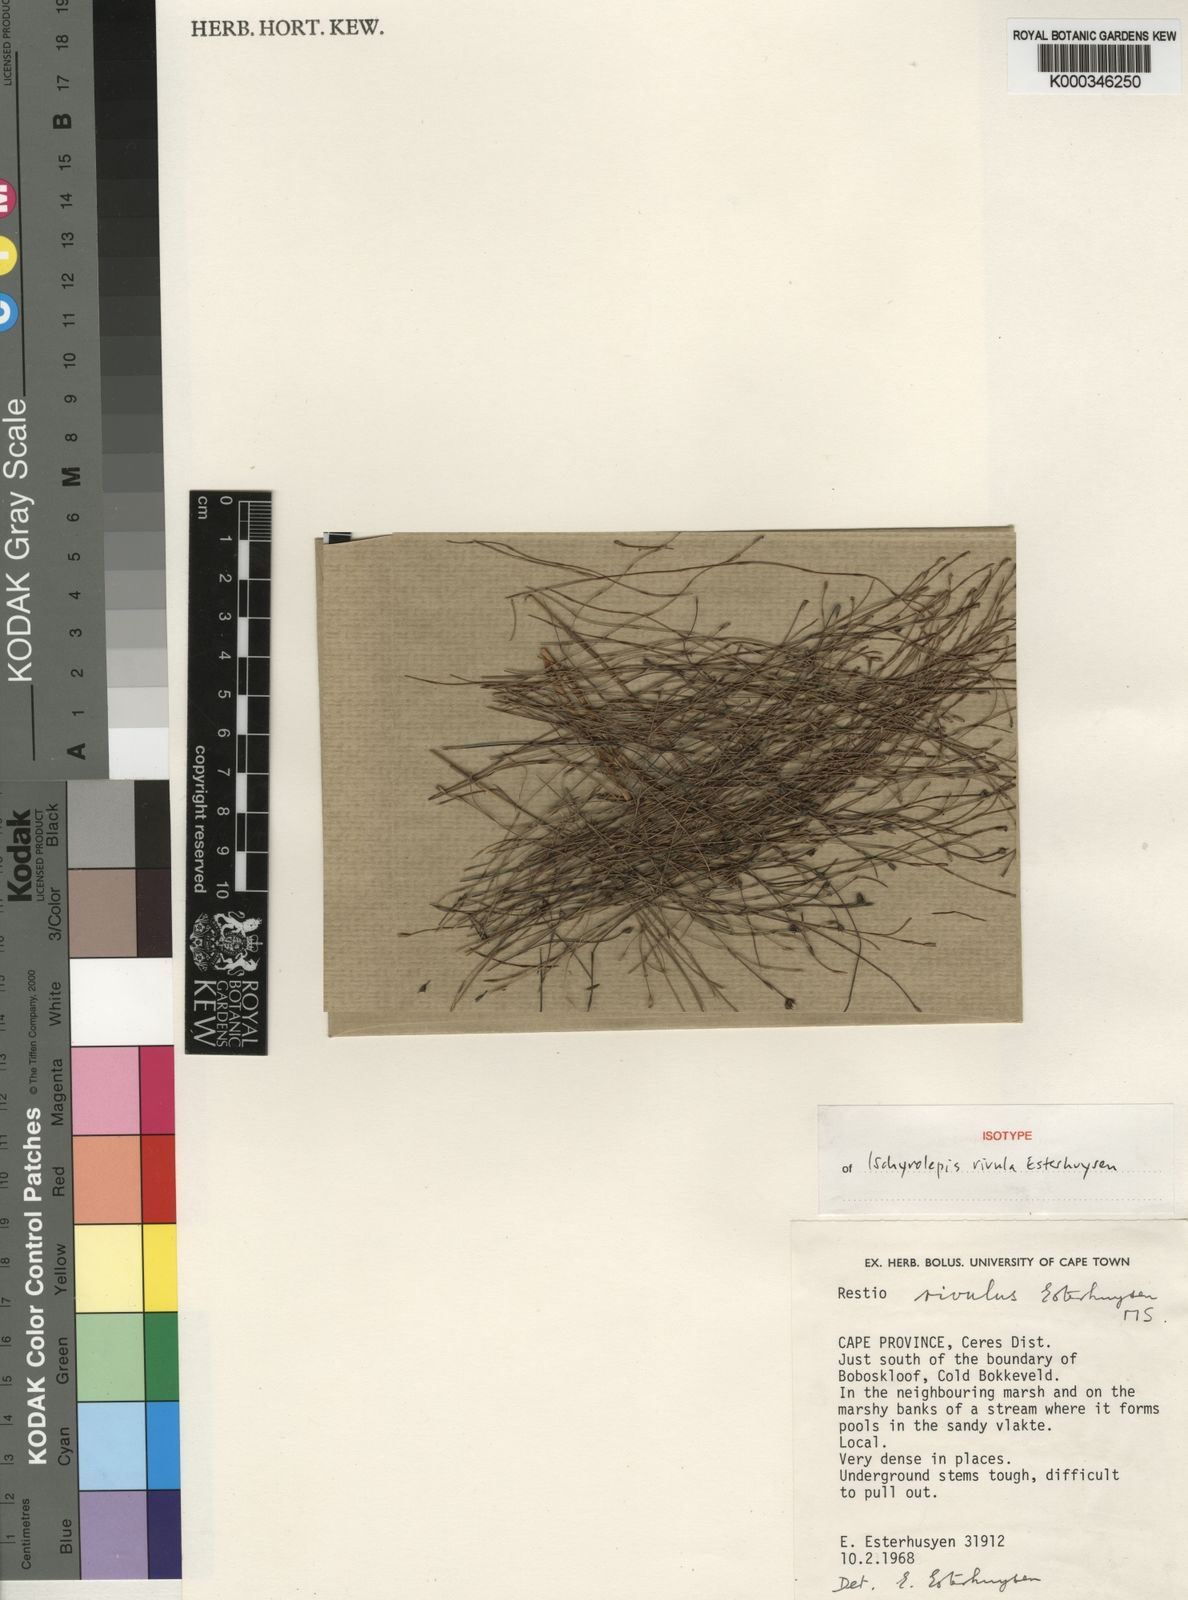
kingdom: Plantae
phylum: Tracheophyta
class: Liliopsida
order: Poales
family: Restionaceae
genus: Restio
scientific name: Restio rivulus
